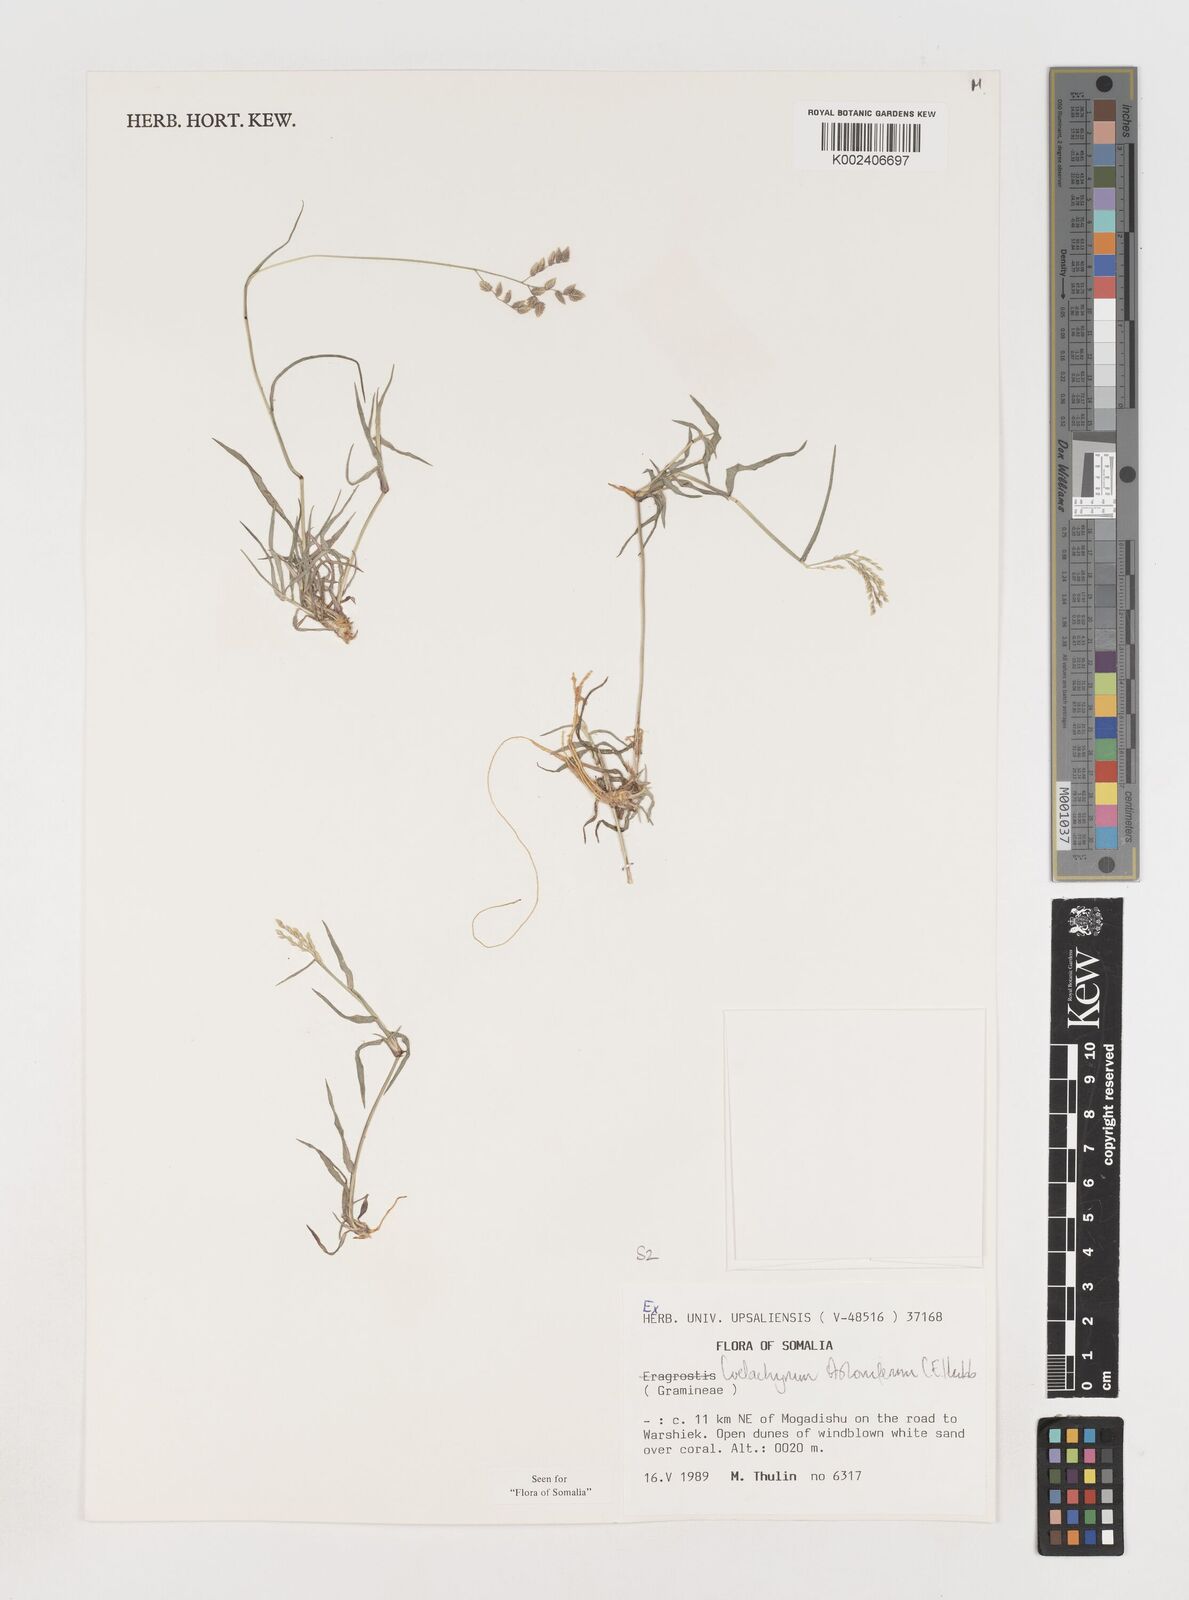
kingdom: Plantae
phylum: Tracheophyta
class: Liliopsida
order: Poales
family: Poaceae
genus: Coelachyrum
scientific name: Coelachyrum piercei
